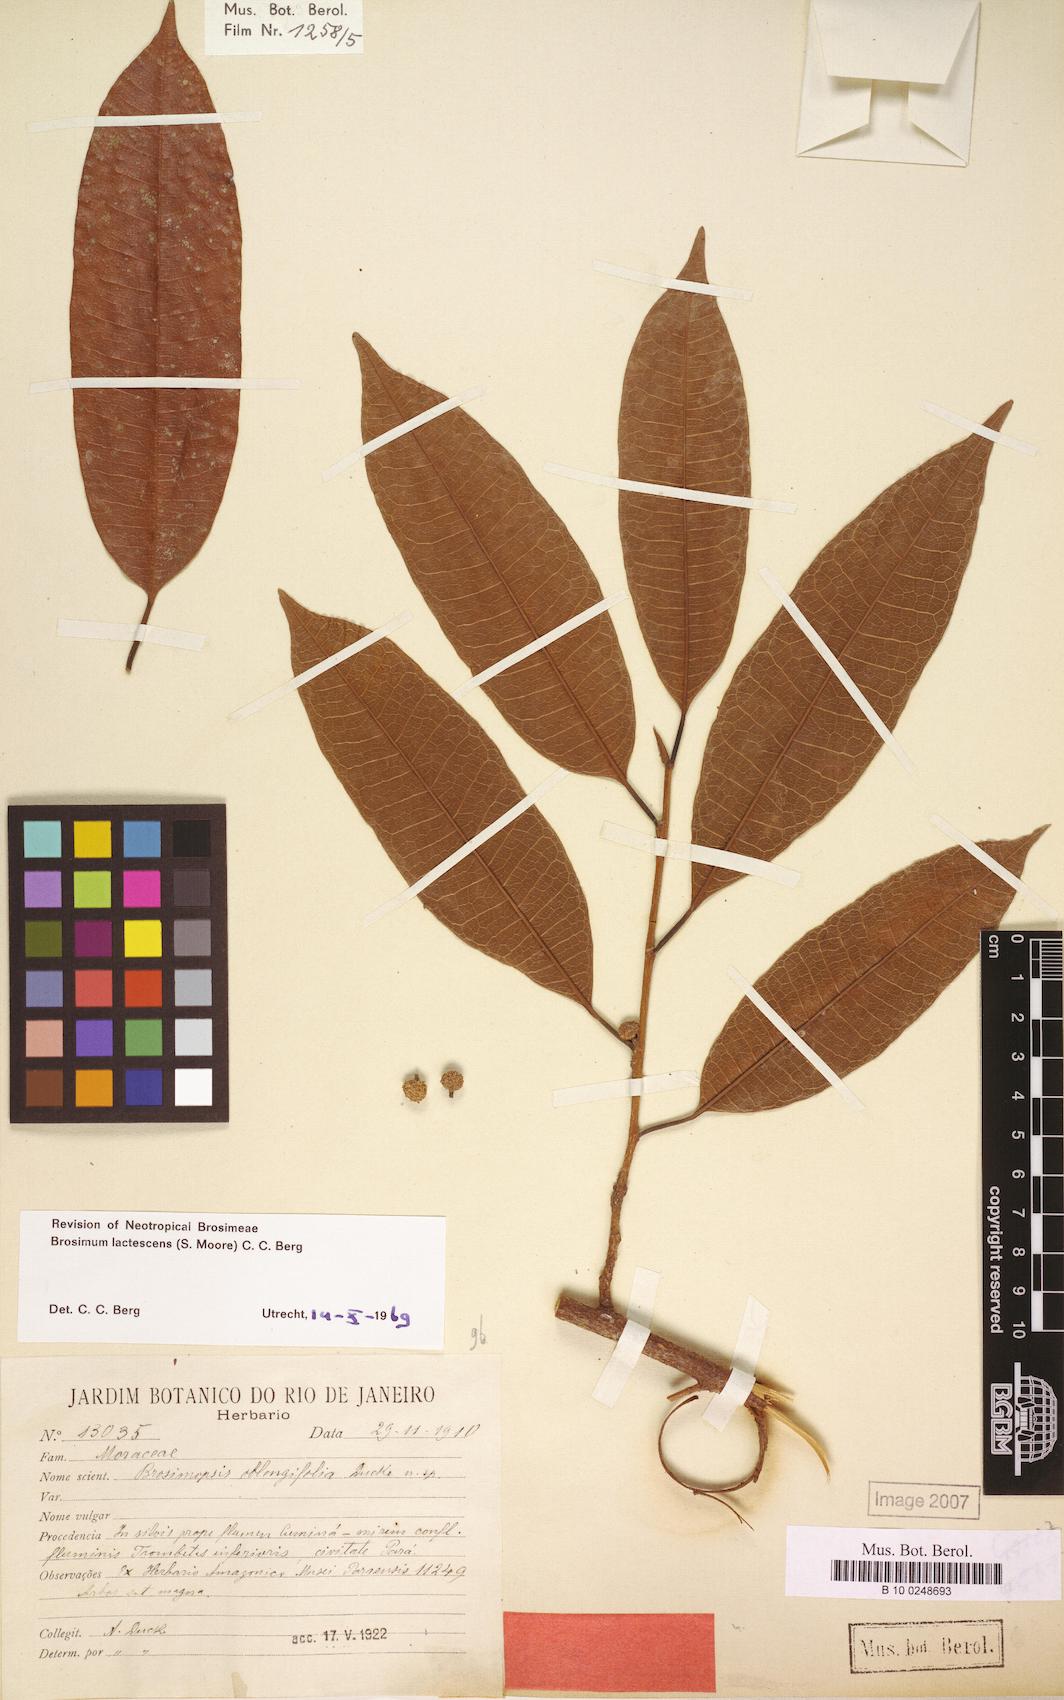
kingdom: Plantae
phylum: Tracheophyta
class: Magnoliopsida
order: Rosales
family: Moraceae
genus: Brosimum
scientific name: Brosimum lactescens
